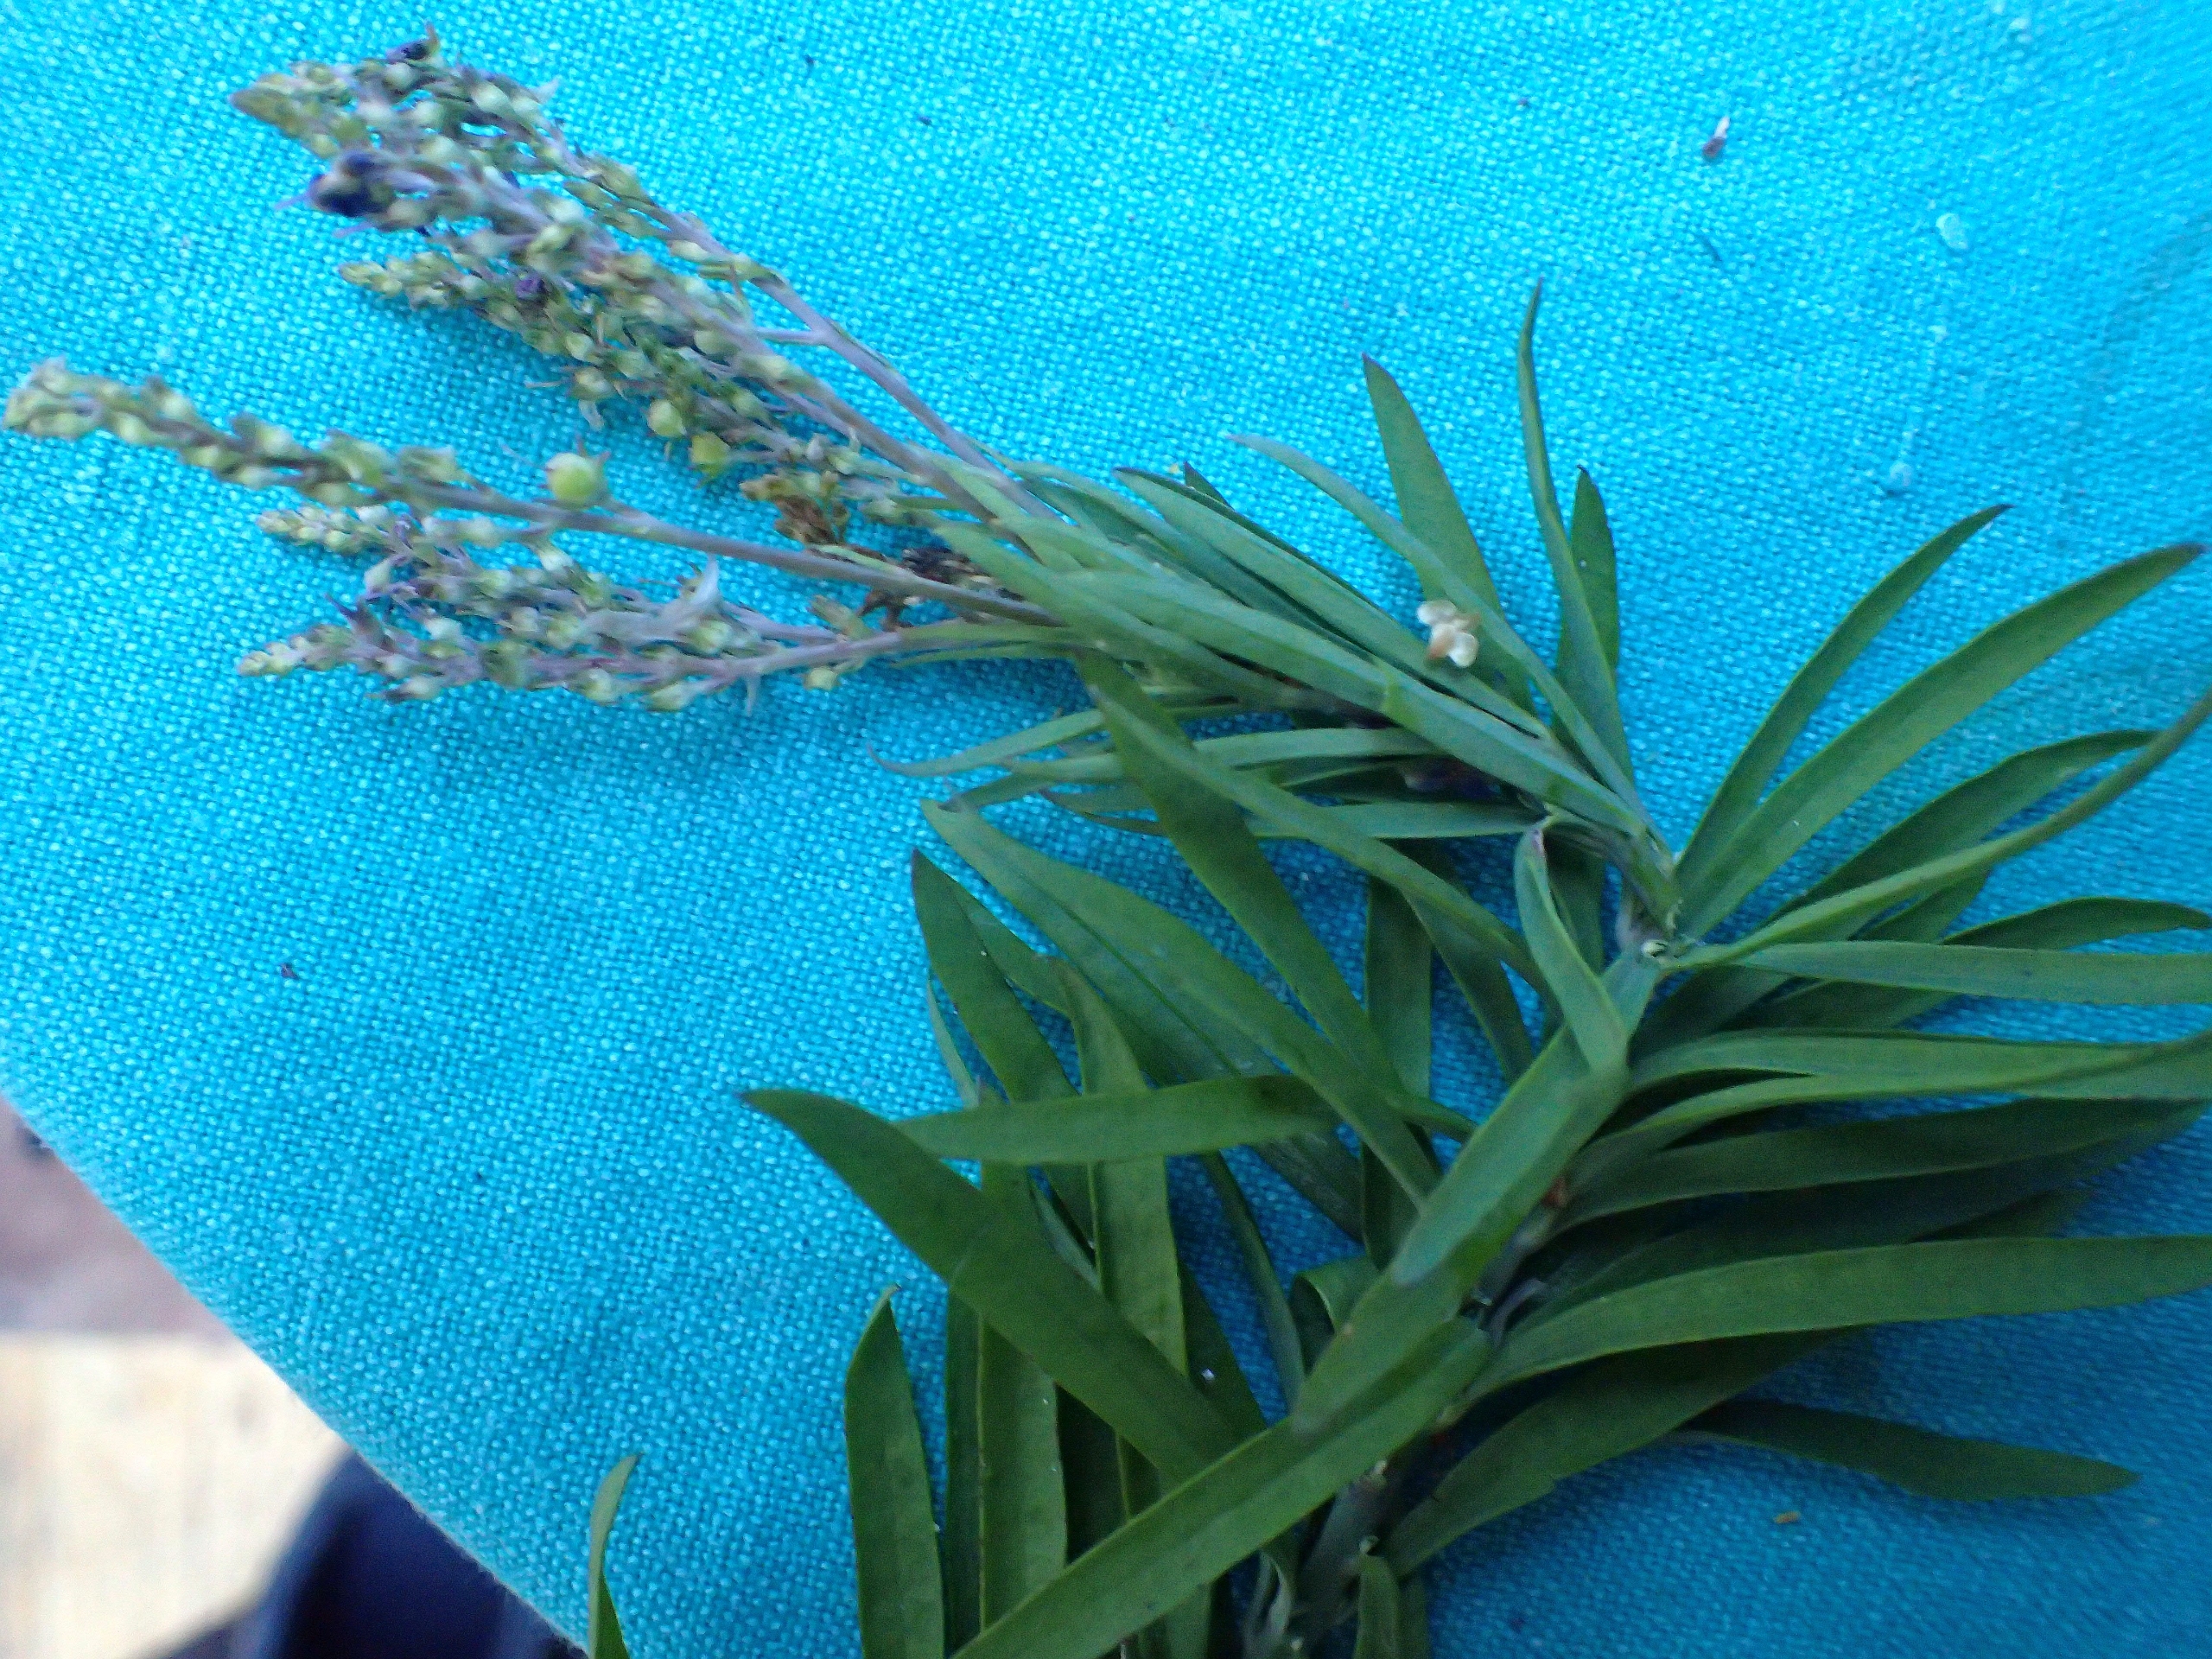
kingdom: Plantae
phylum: Tracheophyta
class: Magnoliopsida
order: Lamiales
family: Plantaginaceae
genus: Linaria
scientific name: Linaria purpurea
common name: Purpur-torskemund
